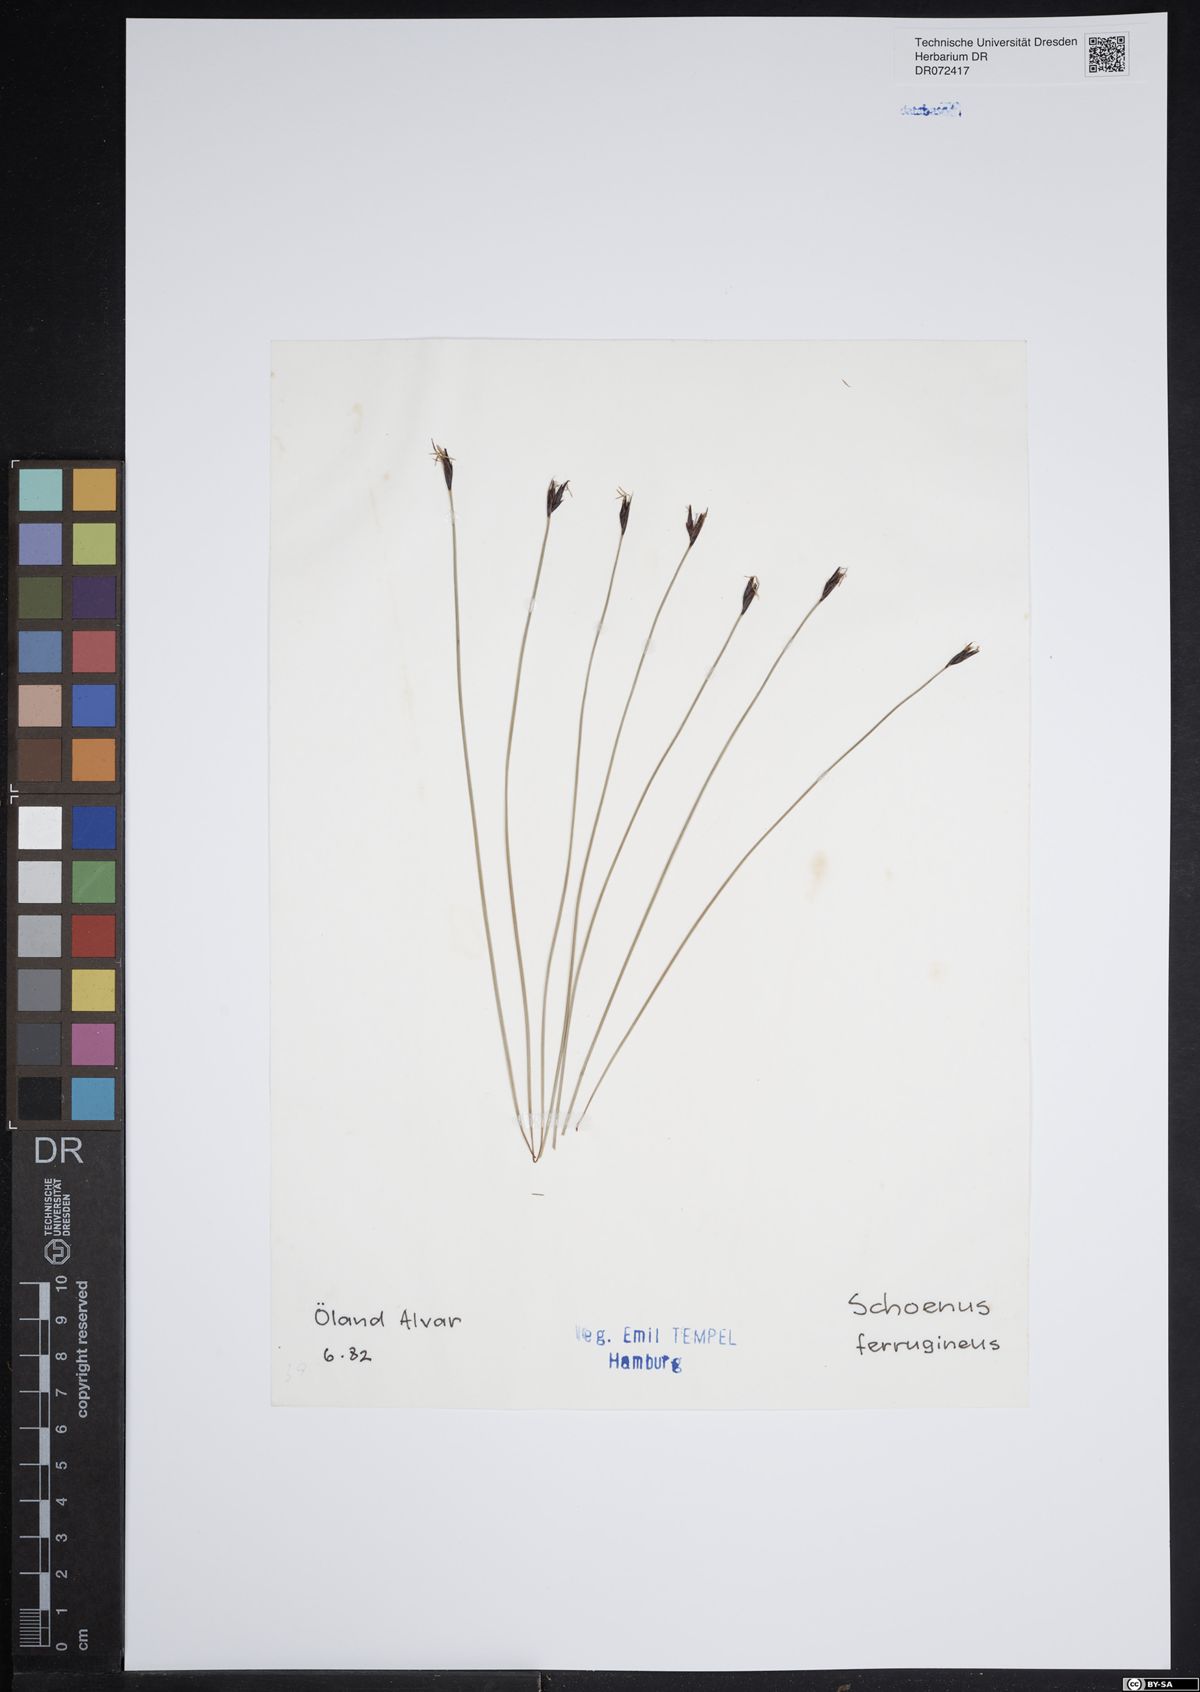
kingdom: Plantae
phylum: Tracheophyta
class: Liliopsida
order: Poales
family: Cyperaceae
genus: Schoenus
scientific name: Schoenus ferrugineus
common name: Brown bog-rush
